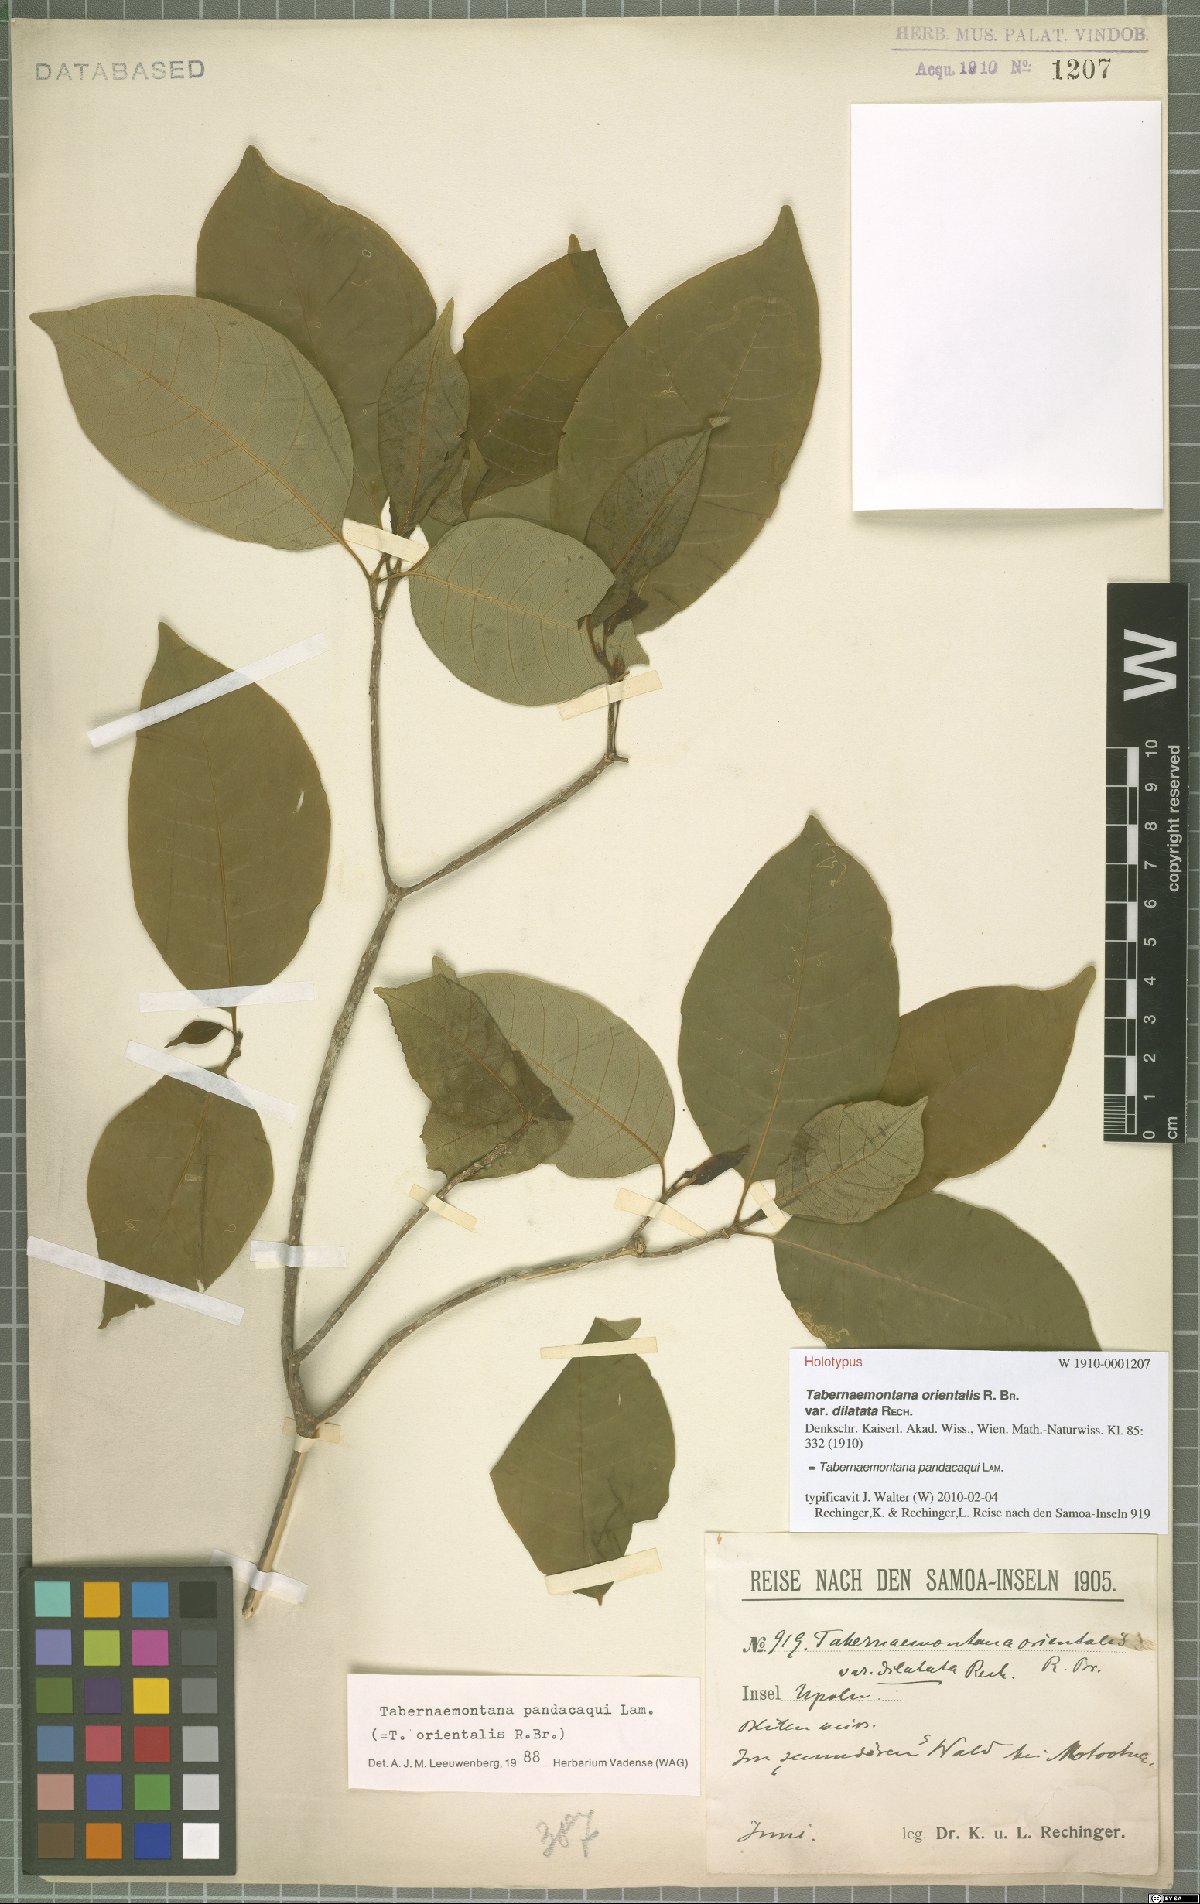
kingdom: Plantae
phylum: Tracheophyta
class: Magnoliopsida
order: Gentianales
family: Apocynaceae
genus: Tabernaemontana
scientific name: Tabernaemontana pandacaqui
